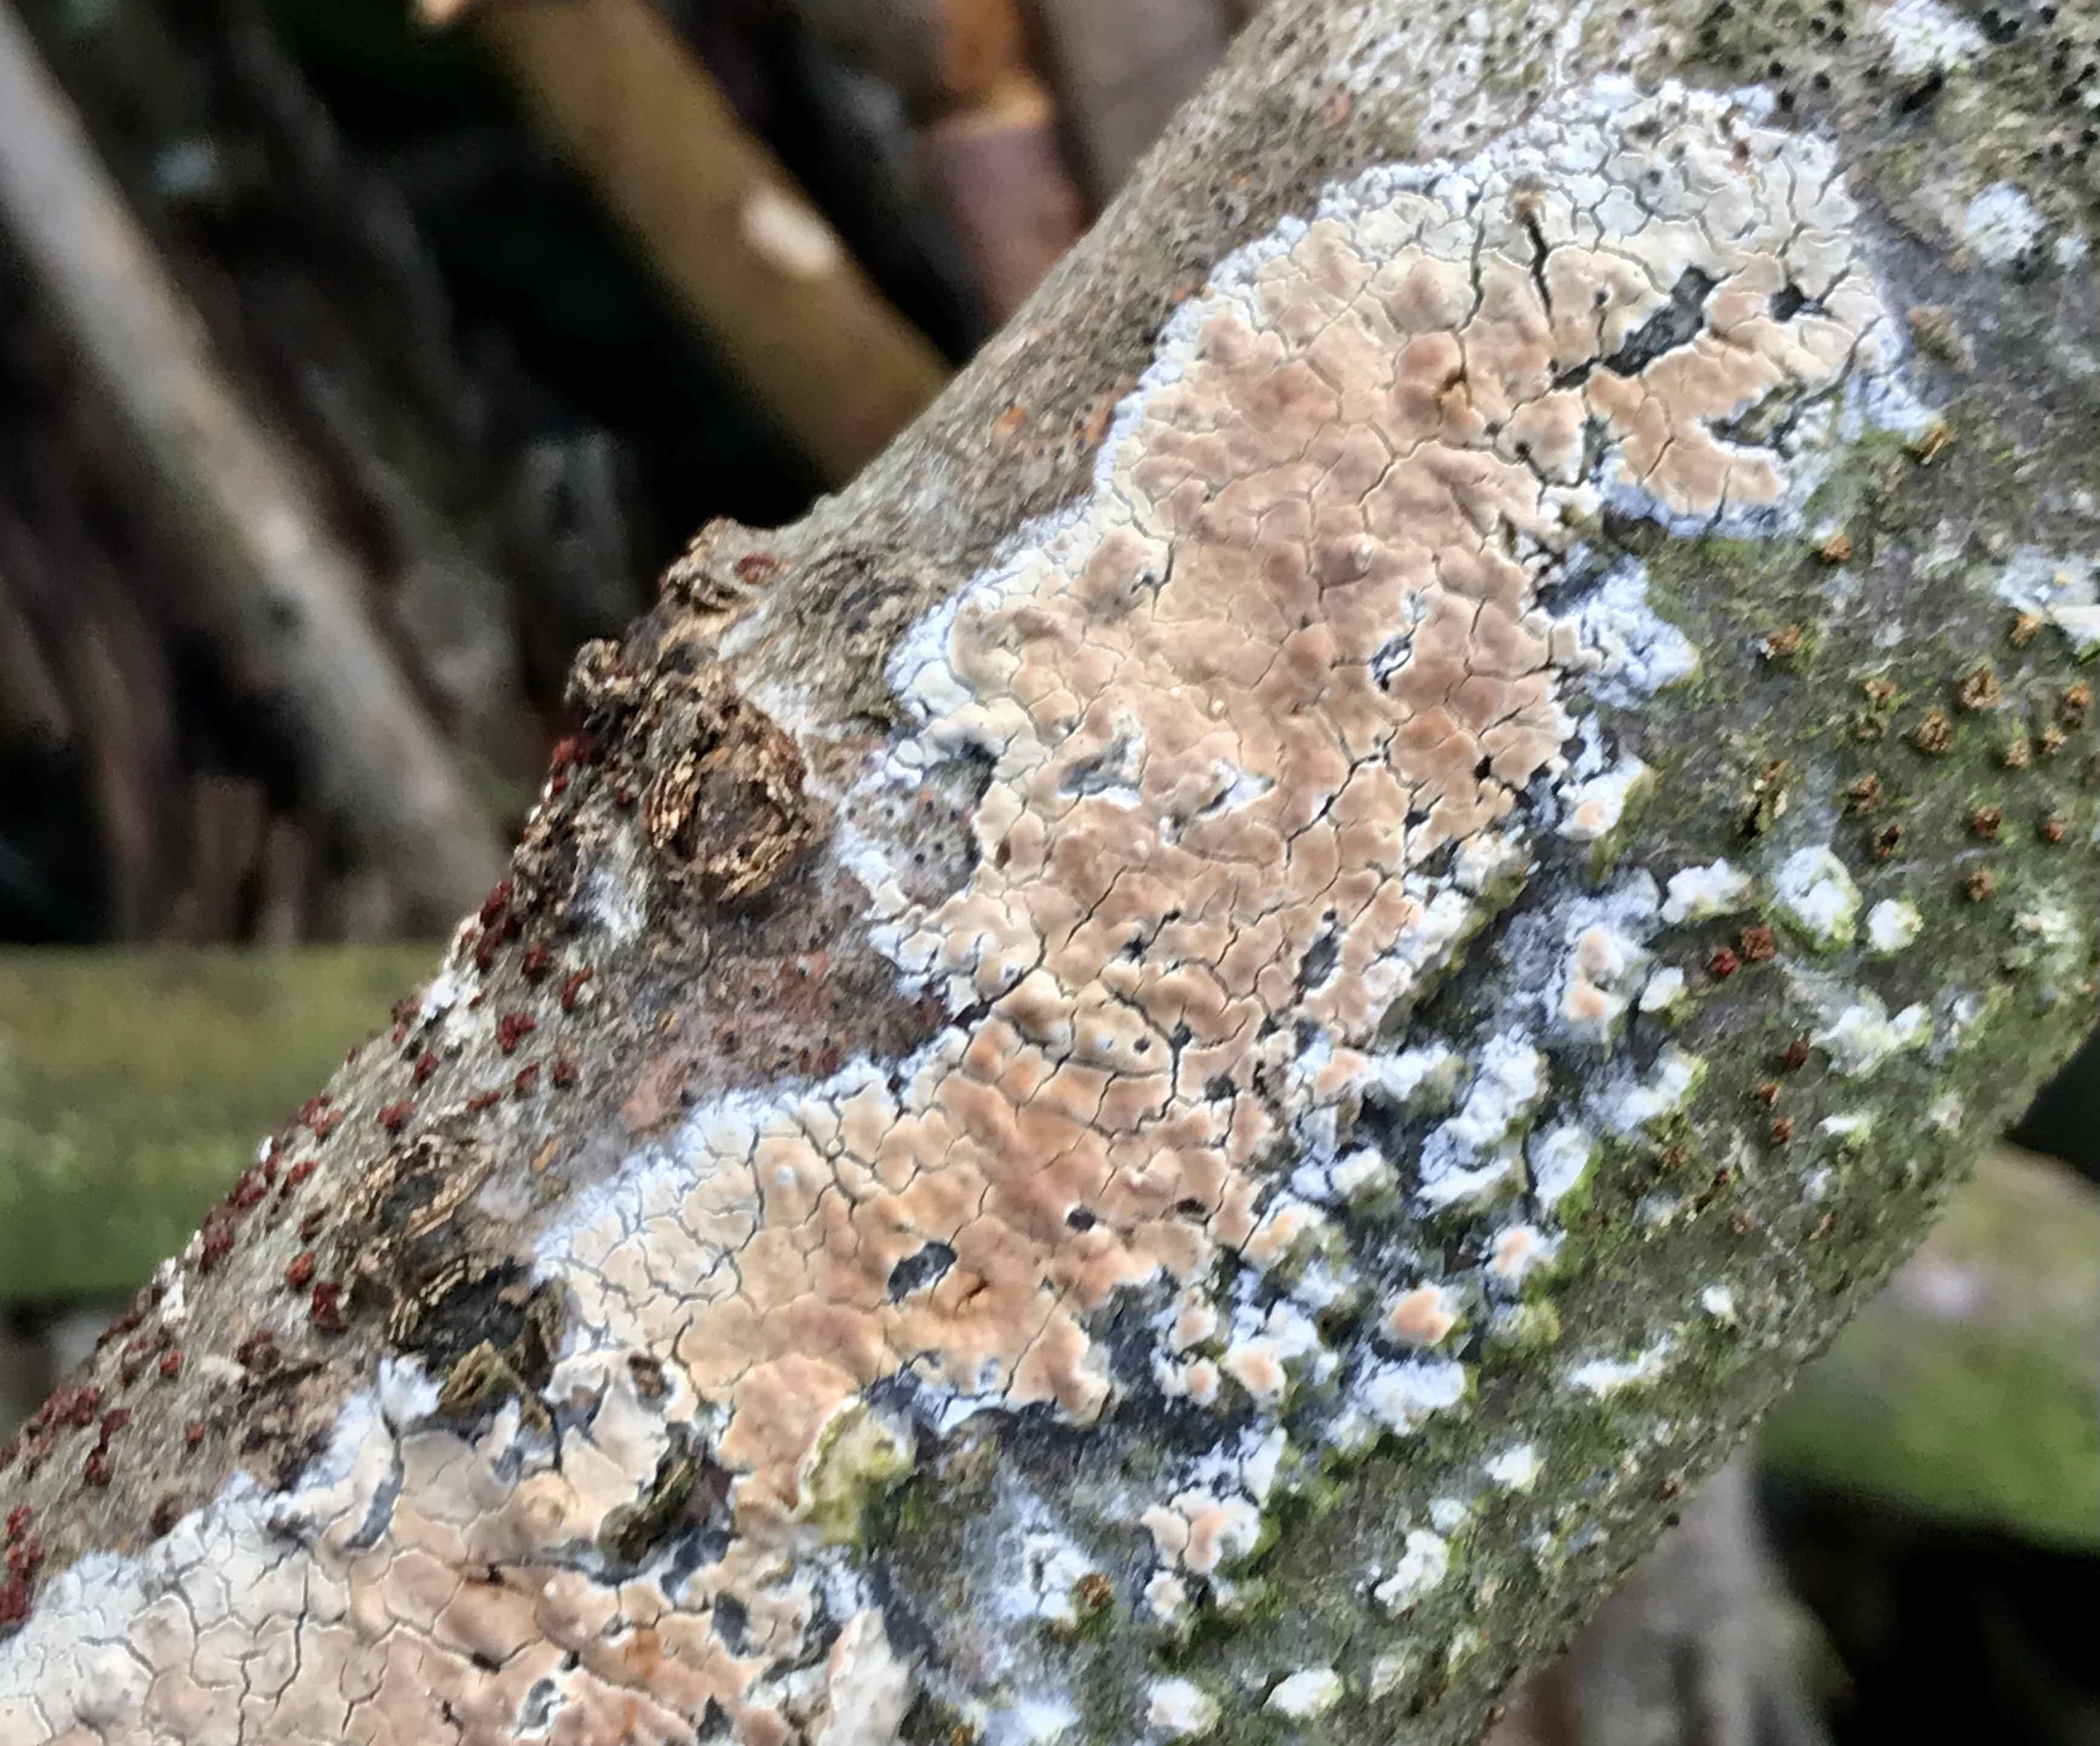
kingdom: Fungi
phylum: Basidiomycota
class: Agaricomycetes
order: Agaricales
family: Physalacriaceae
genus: Cylindrobasidium
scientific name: Cylindrobasidium evolvens
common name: sprækkehinde
